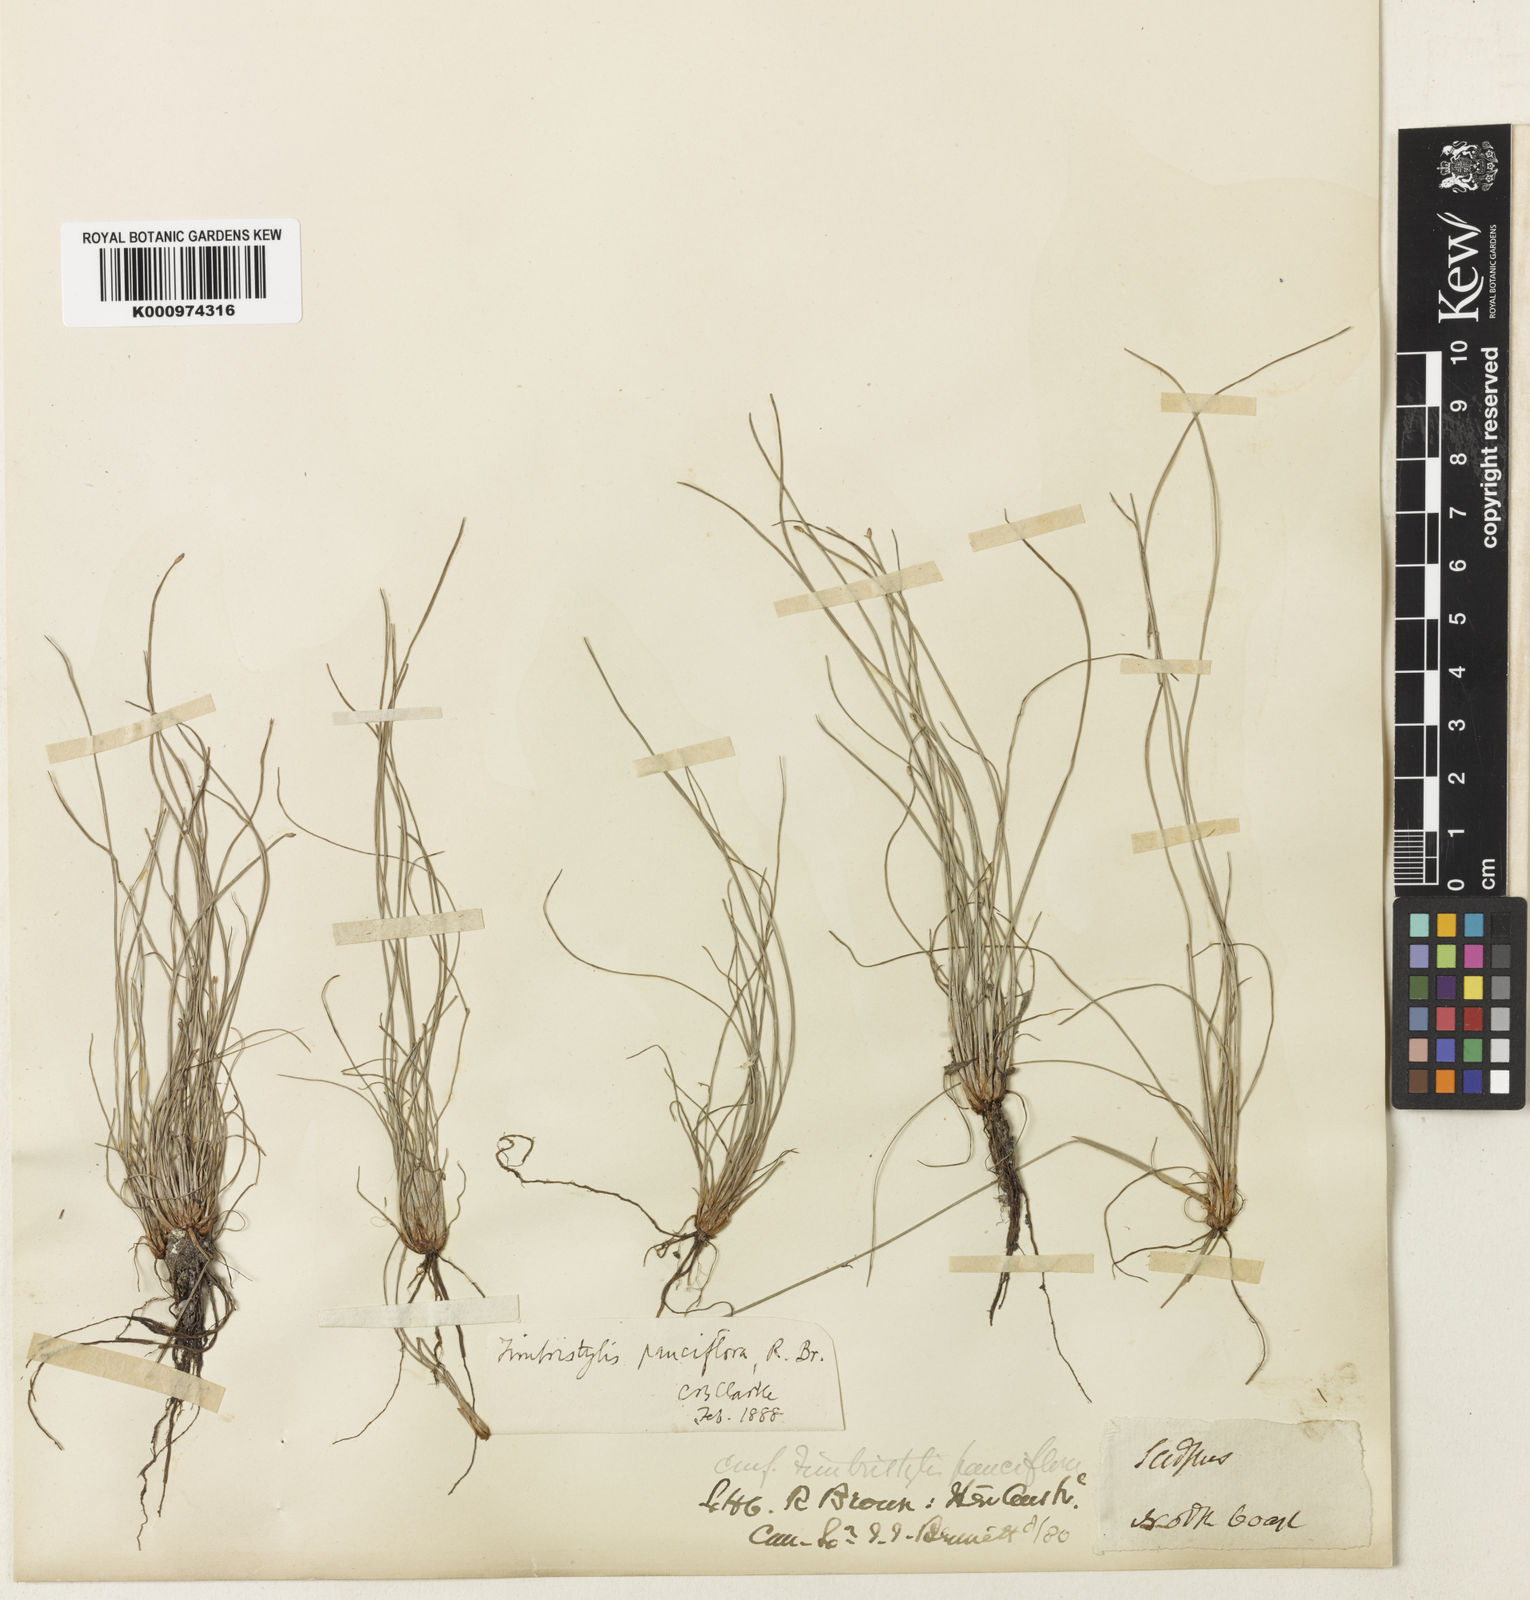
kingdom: Plantae
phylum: Tracheophyta
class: Liliopsida
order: Poales
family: Cyperaceae
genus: Fimbristylis
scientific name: Fimbristylis pauciflora
